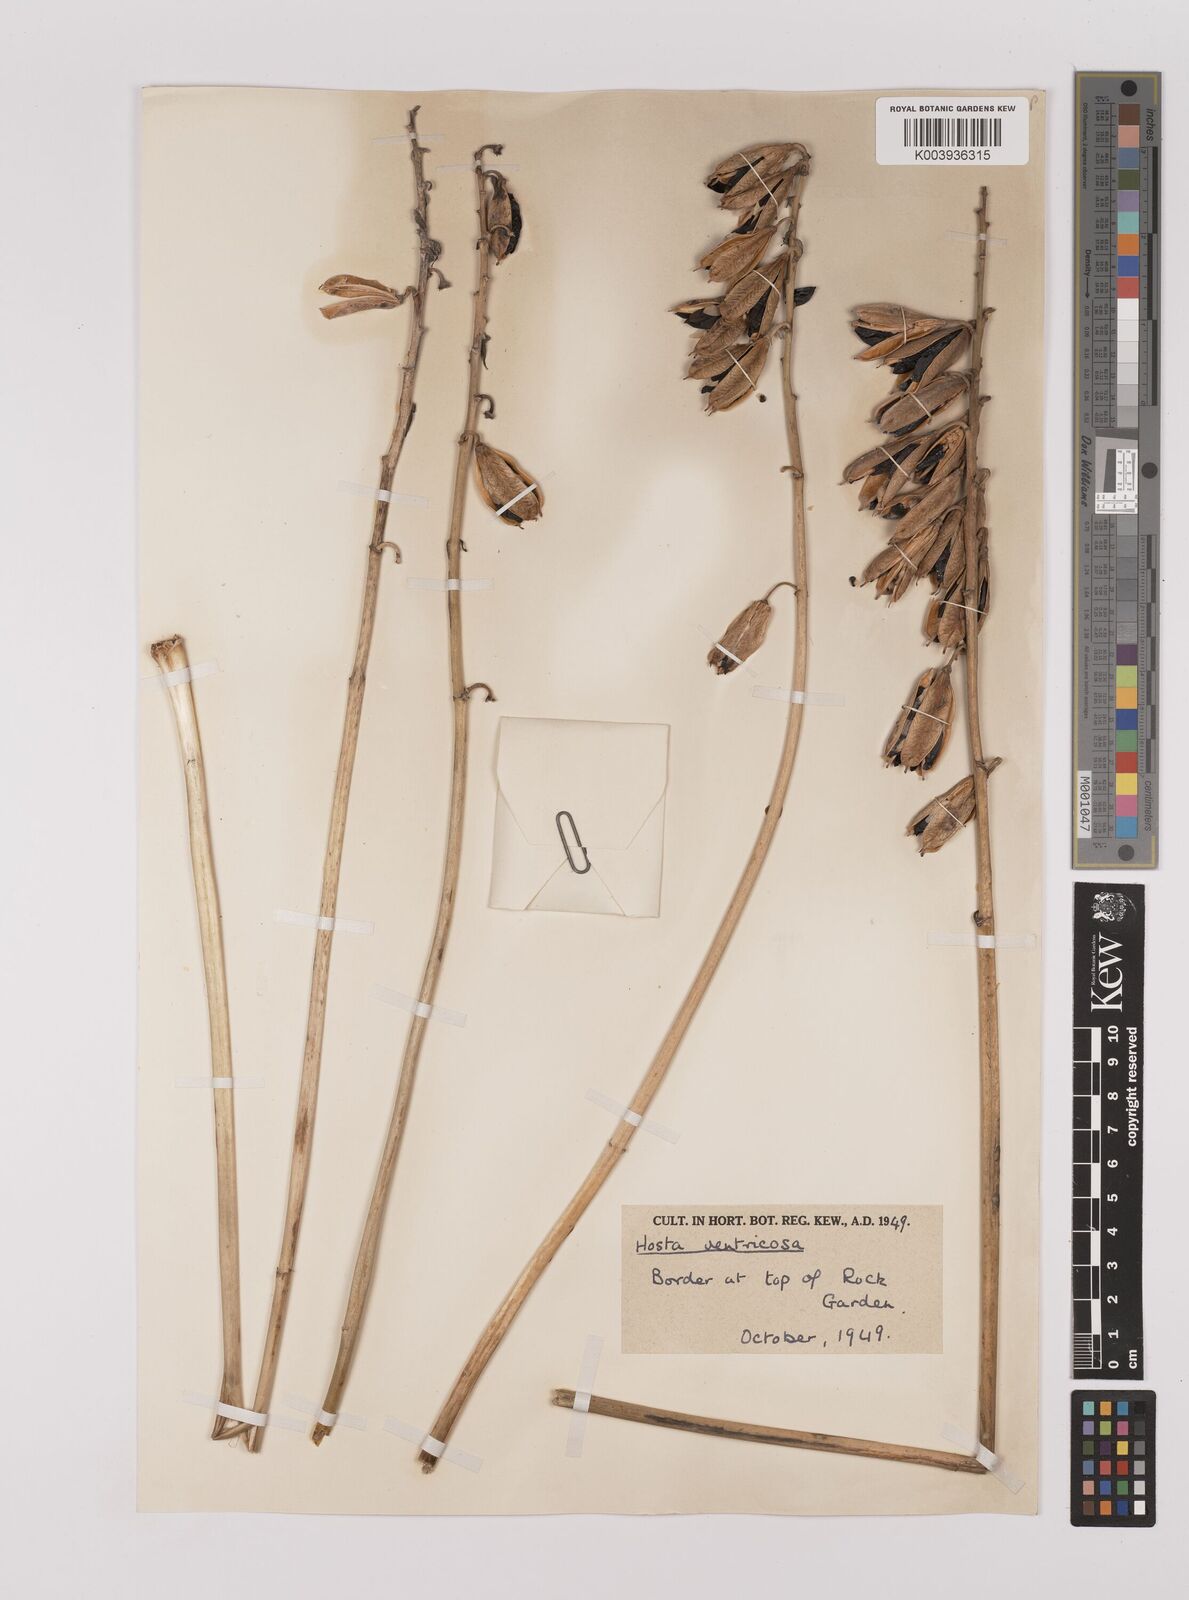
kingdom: Plantae
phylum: Tracheophyta
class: Liliopsida
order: Asparagales
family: Asparagaceae
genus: Hosta
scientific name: Hosta ventricosa
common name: Blue plantain-lily
